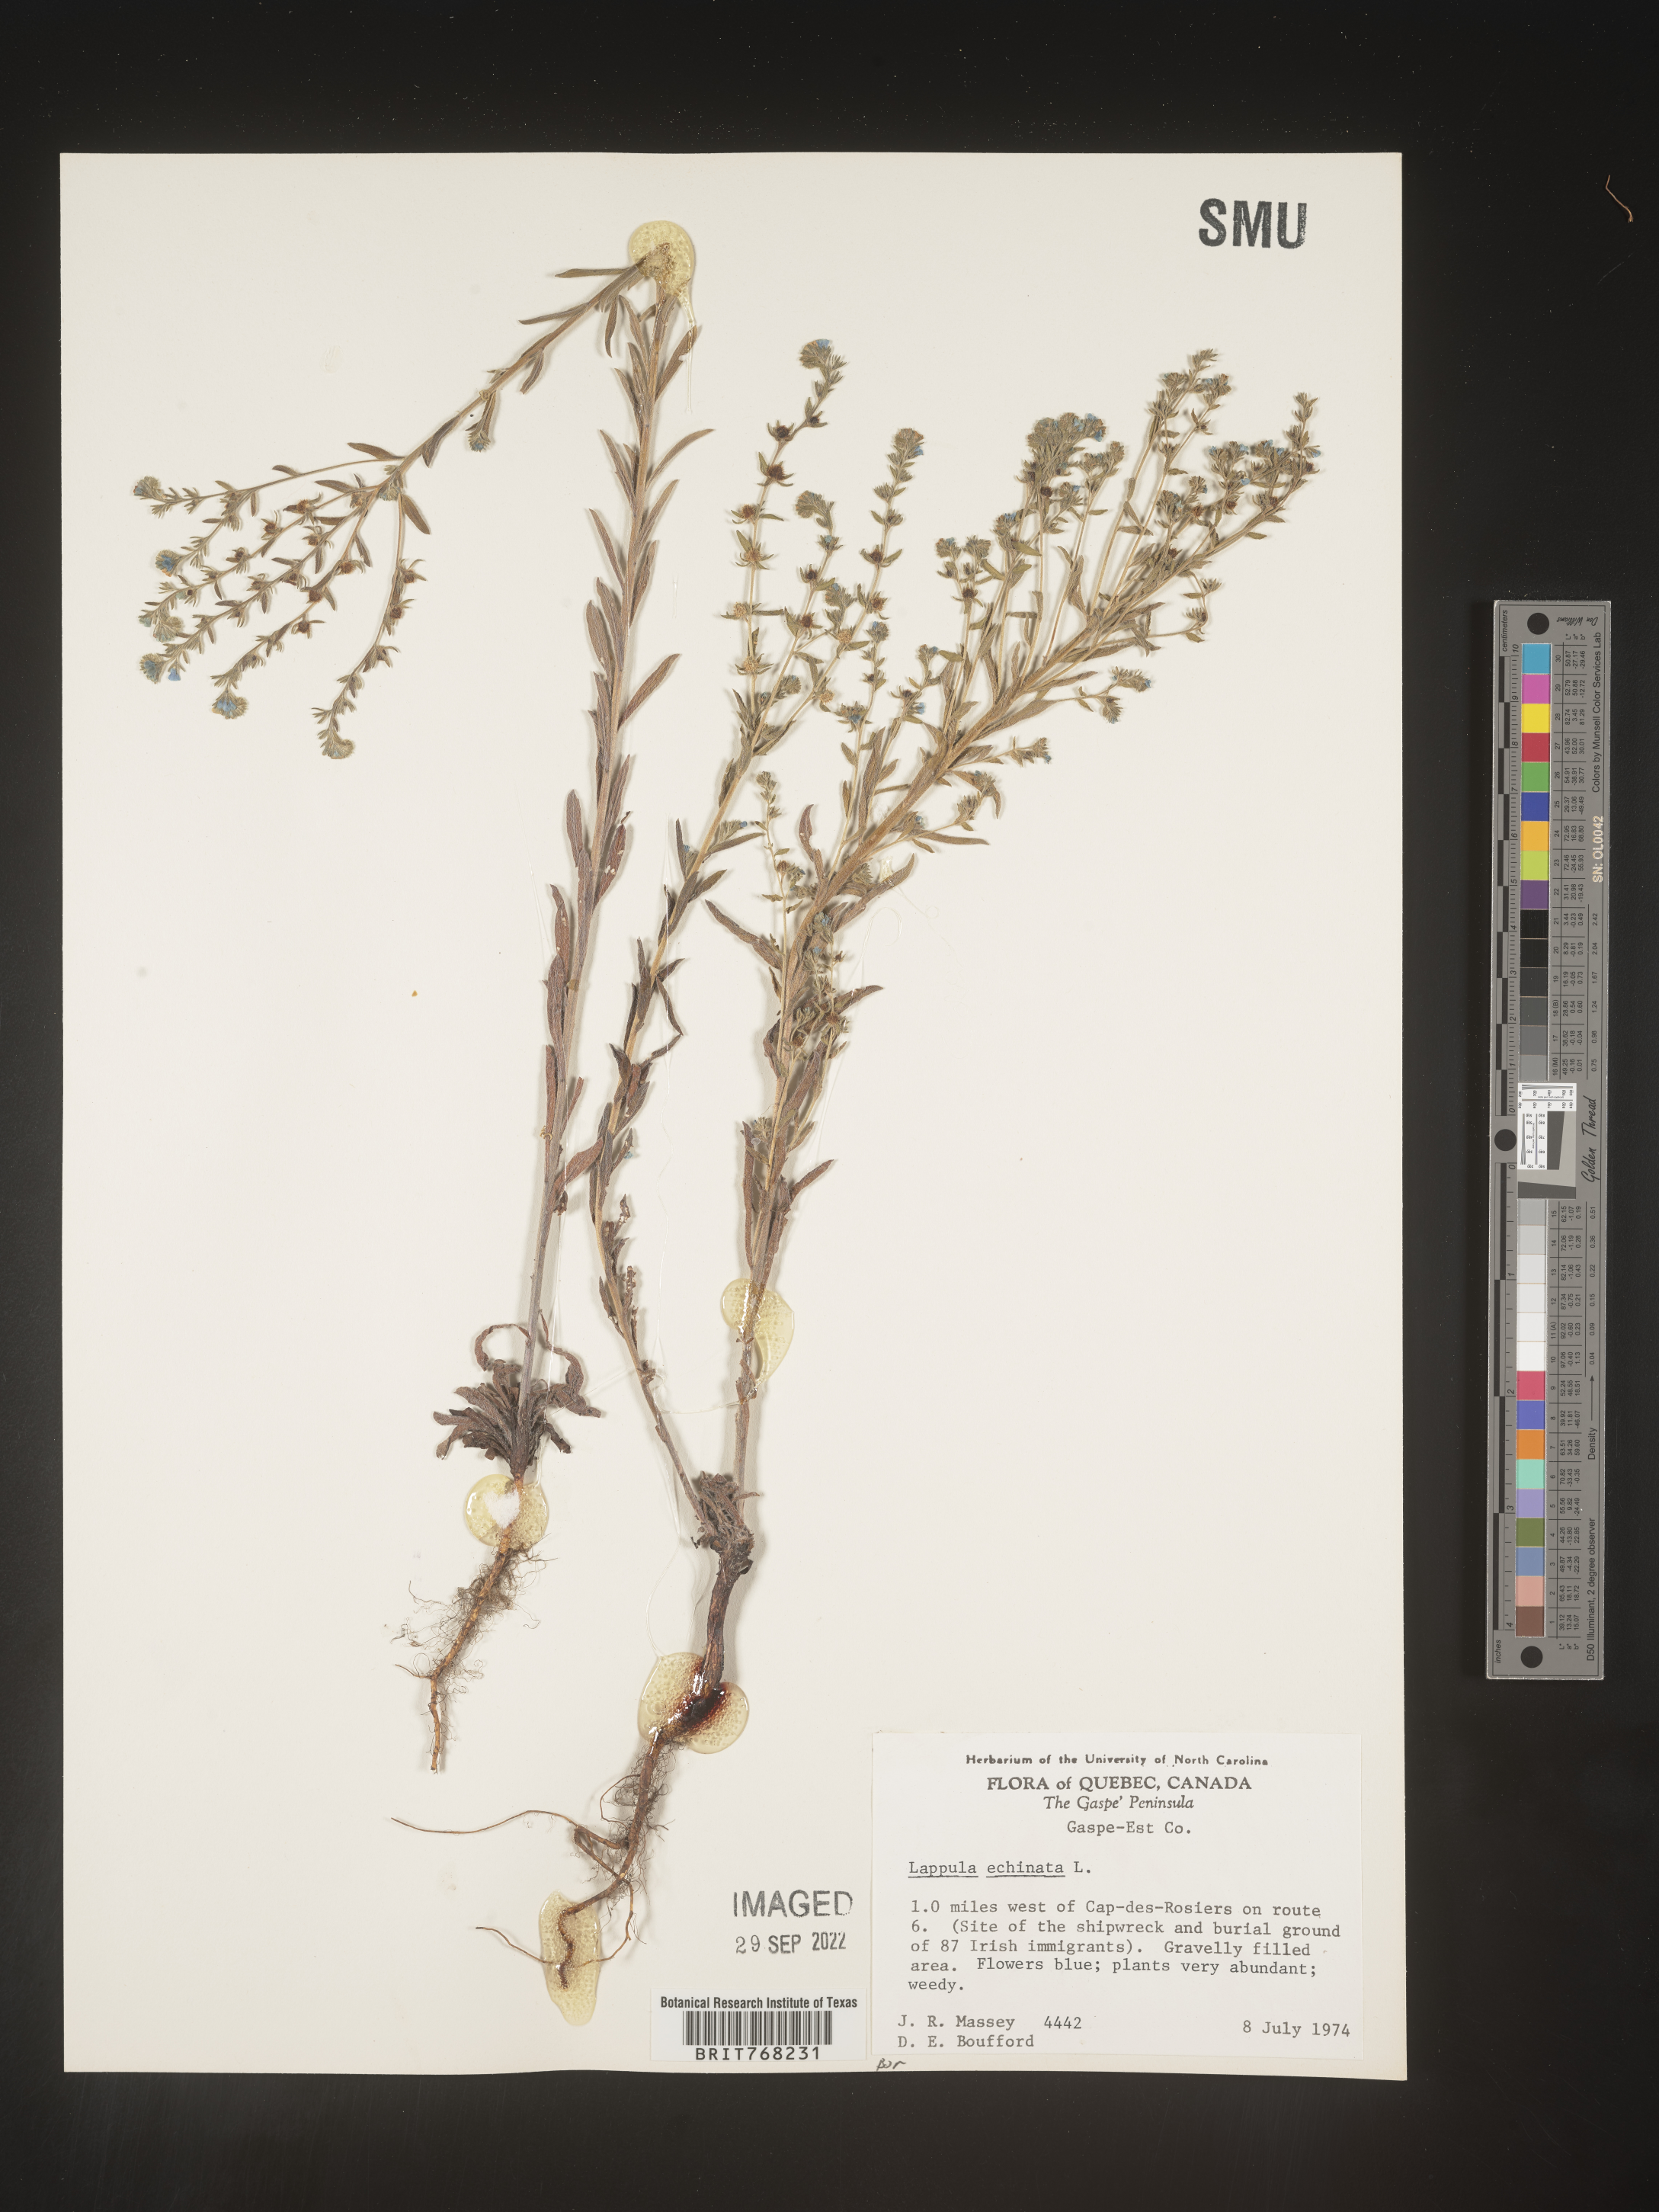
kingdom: Plantae
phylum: Tracheophyta
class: Magnoliopsida
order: Boraginales
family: Boraginaceae
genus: Lappula
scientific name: Lappula
